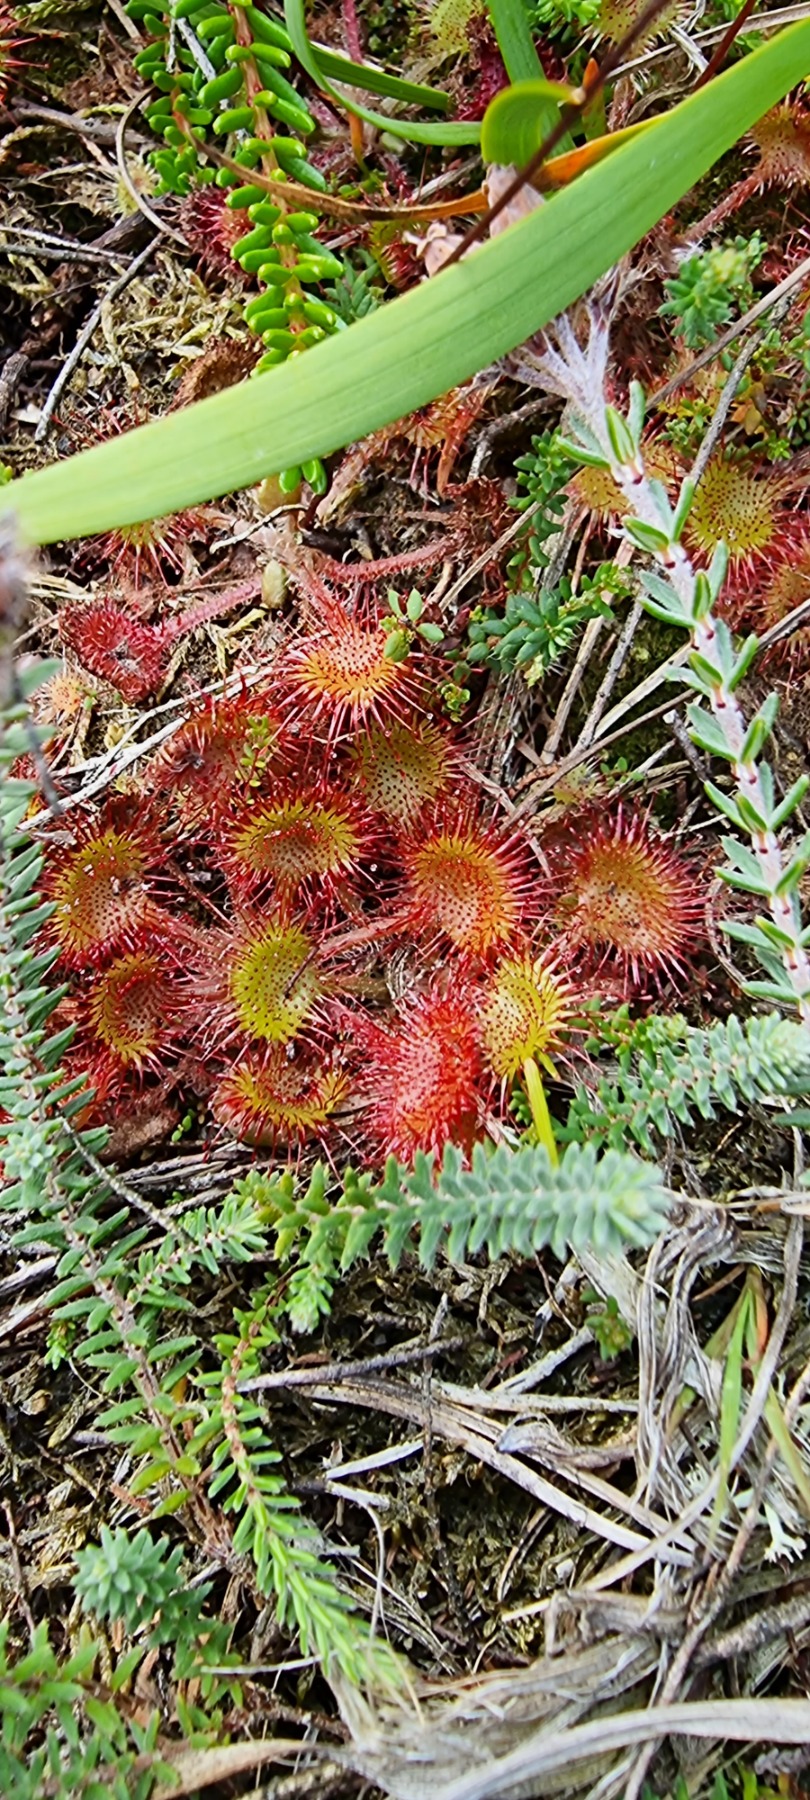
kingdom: Plantae
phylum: Tracheophyta
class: Magnoliopsida
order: Caryophyllales
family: Droseraceae
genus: Drosera
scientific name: Drosera rotundifolia
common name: Rundbladet soldug
